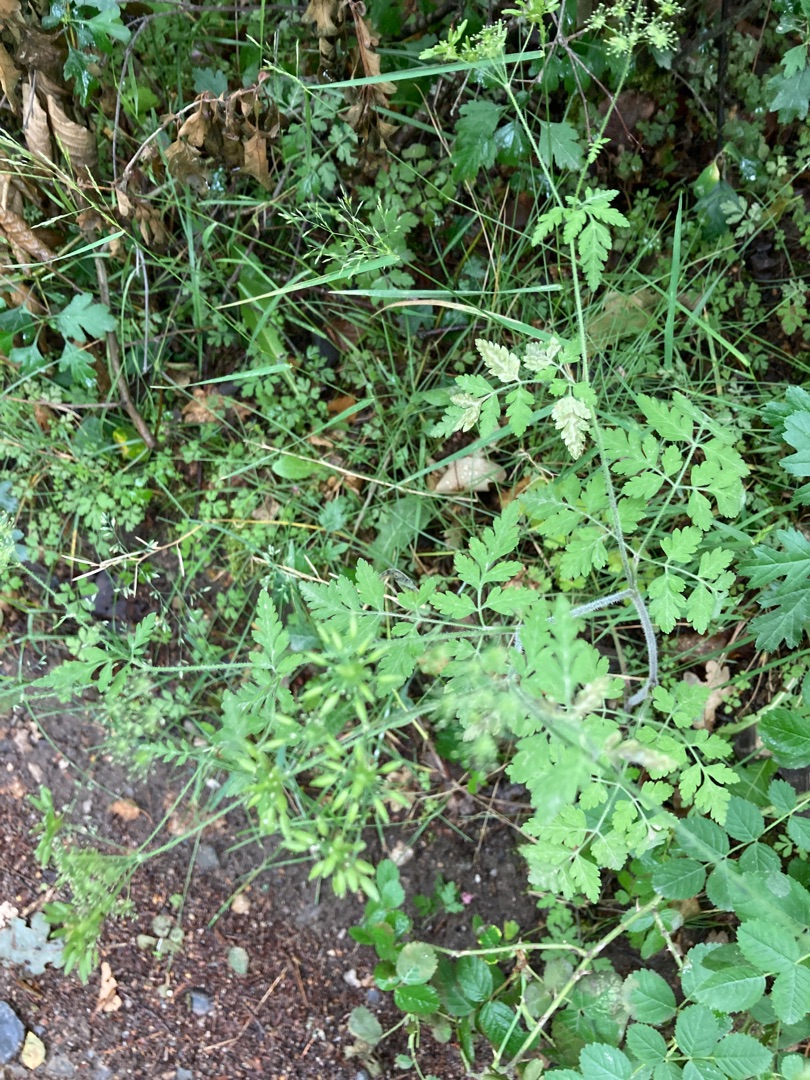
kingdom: Plantae
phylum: Tracheophyta
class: Magnoliopsida
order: Apiales
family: Apiaceae
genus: Chaerophyllum
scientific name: Chaerophyllum temulum
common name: Almindelig hulsvøb
